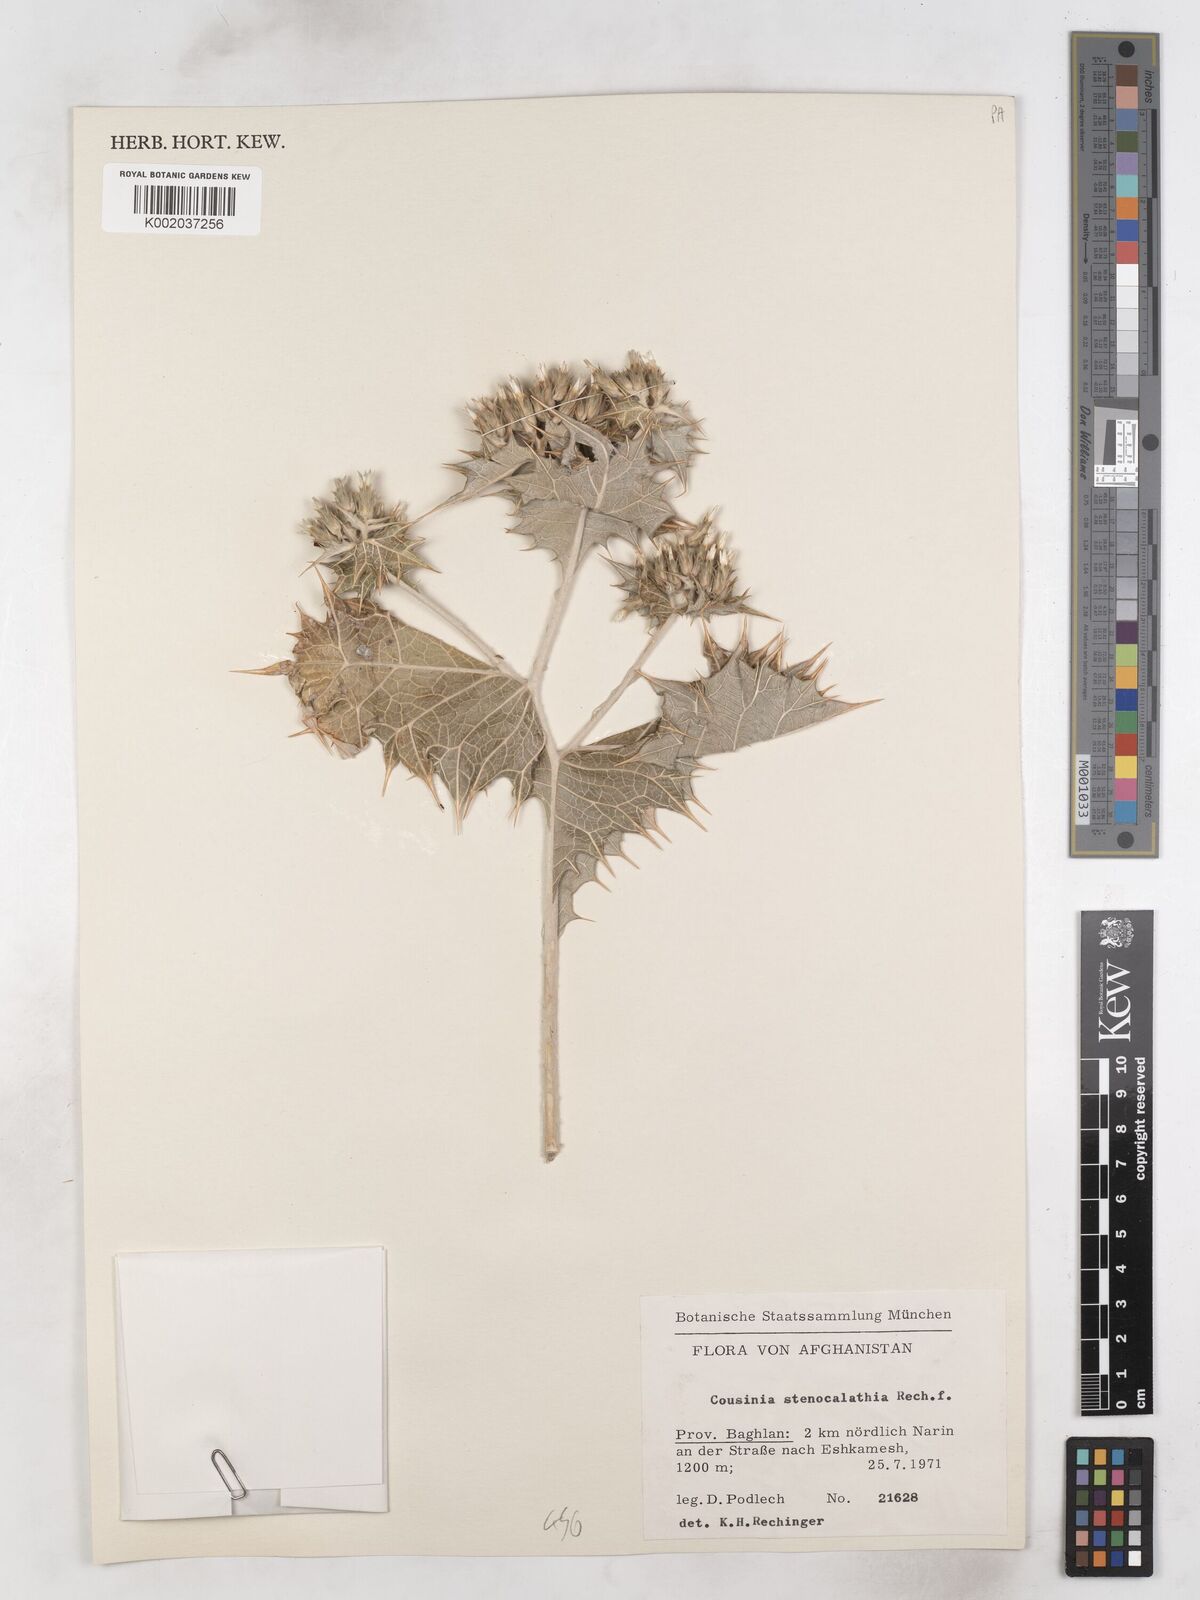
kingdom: Plantae
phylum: Tracheophyta
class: Magnoliopsida
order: Asterales
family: Asteraceae
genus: Cousinia
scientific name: Cousinia stenocalathia
